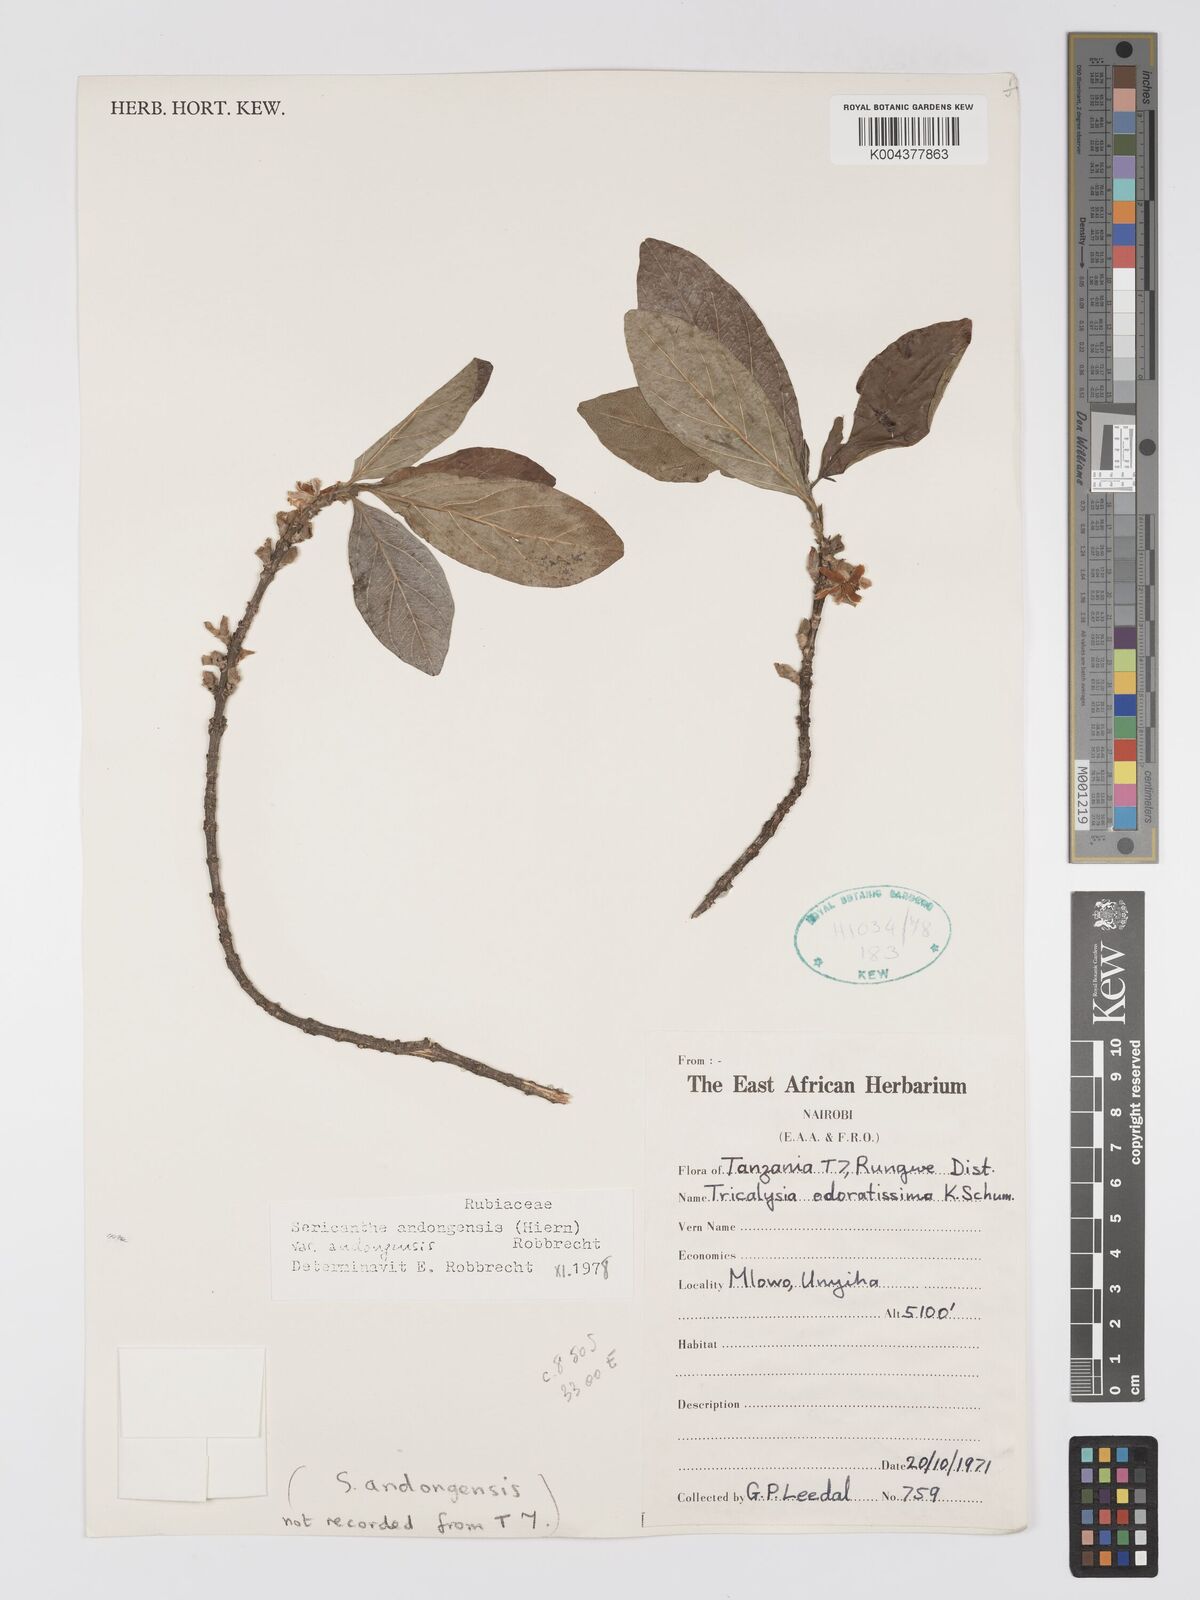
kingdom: Plantae
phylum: Tracheophyta
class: Magnoliopsida
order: Gentianales
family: Rubiaceae
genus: Sericanthe
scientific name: Sericanthe andongensis
